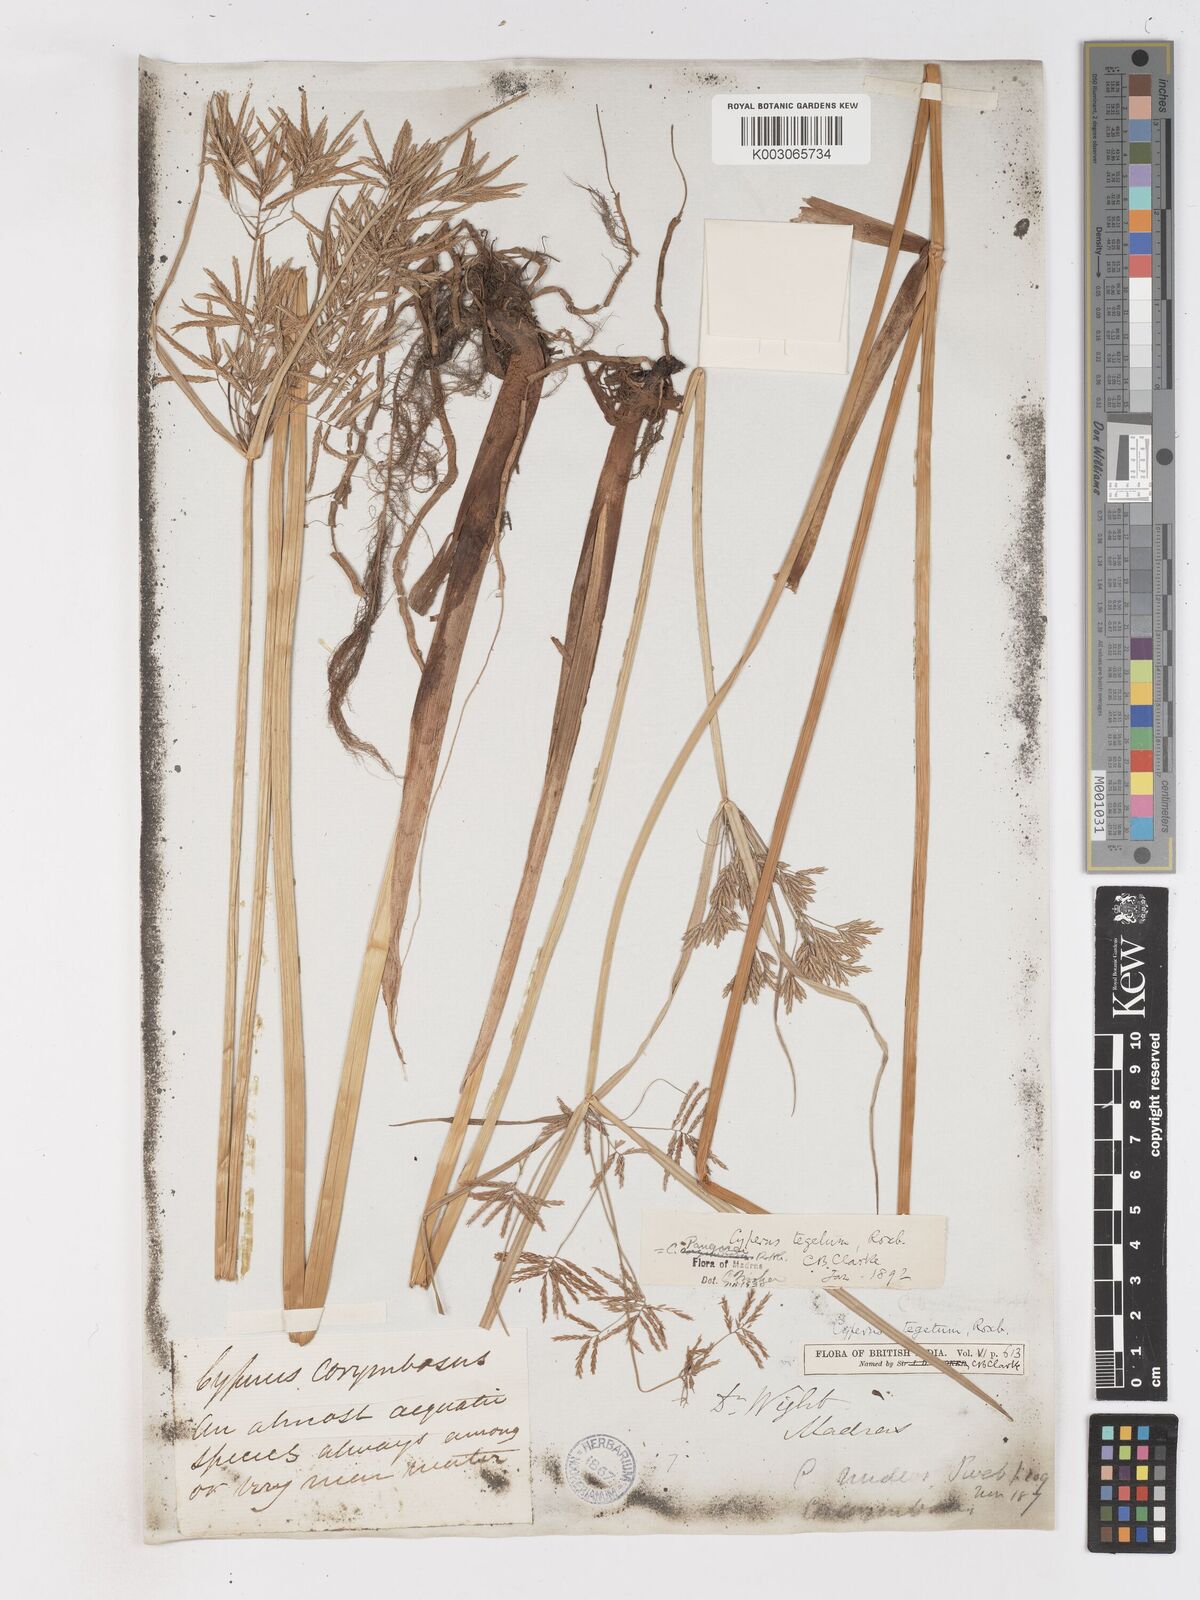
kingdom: Plantae
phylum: Tracheophyta
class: Liliopsida
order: Poales
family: Cyperaceae
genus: Cyperus
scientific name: Cyperus pangorei
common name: Mat sedge
